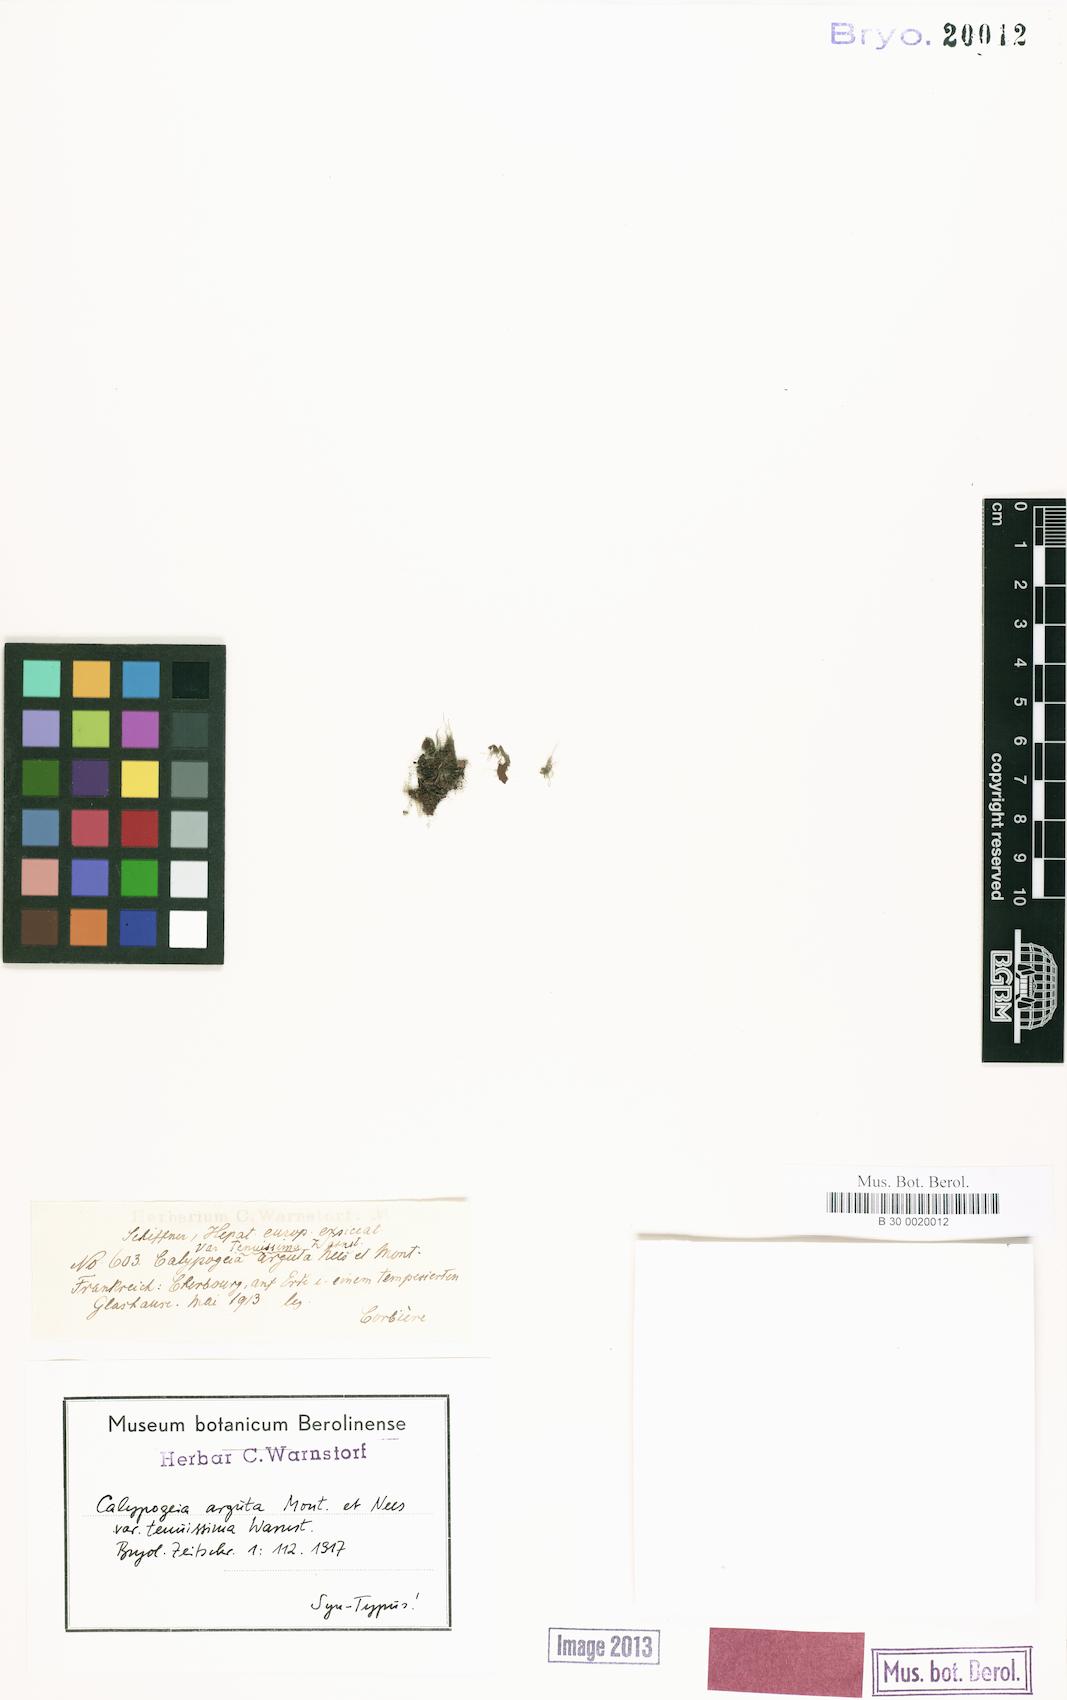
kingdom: Plantae
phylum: Marchantiophyta
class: Jungermanniopsida
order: Jungermanniales
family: Calypogeiaceae
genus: Asperifolia
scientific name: Asperifolia arguta
